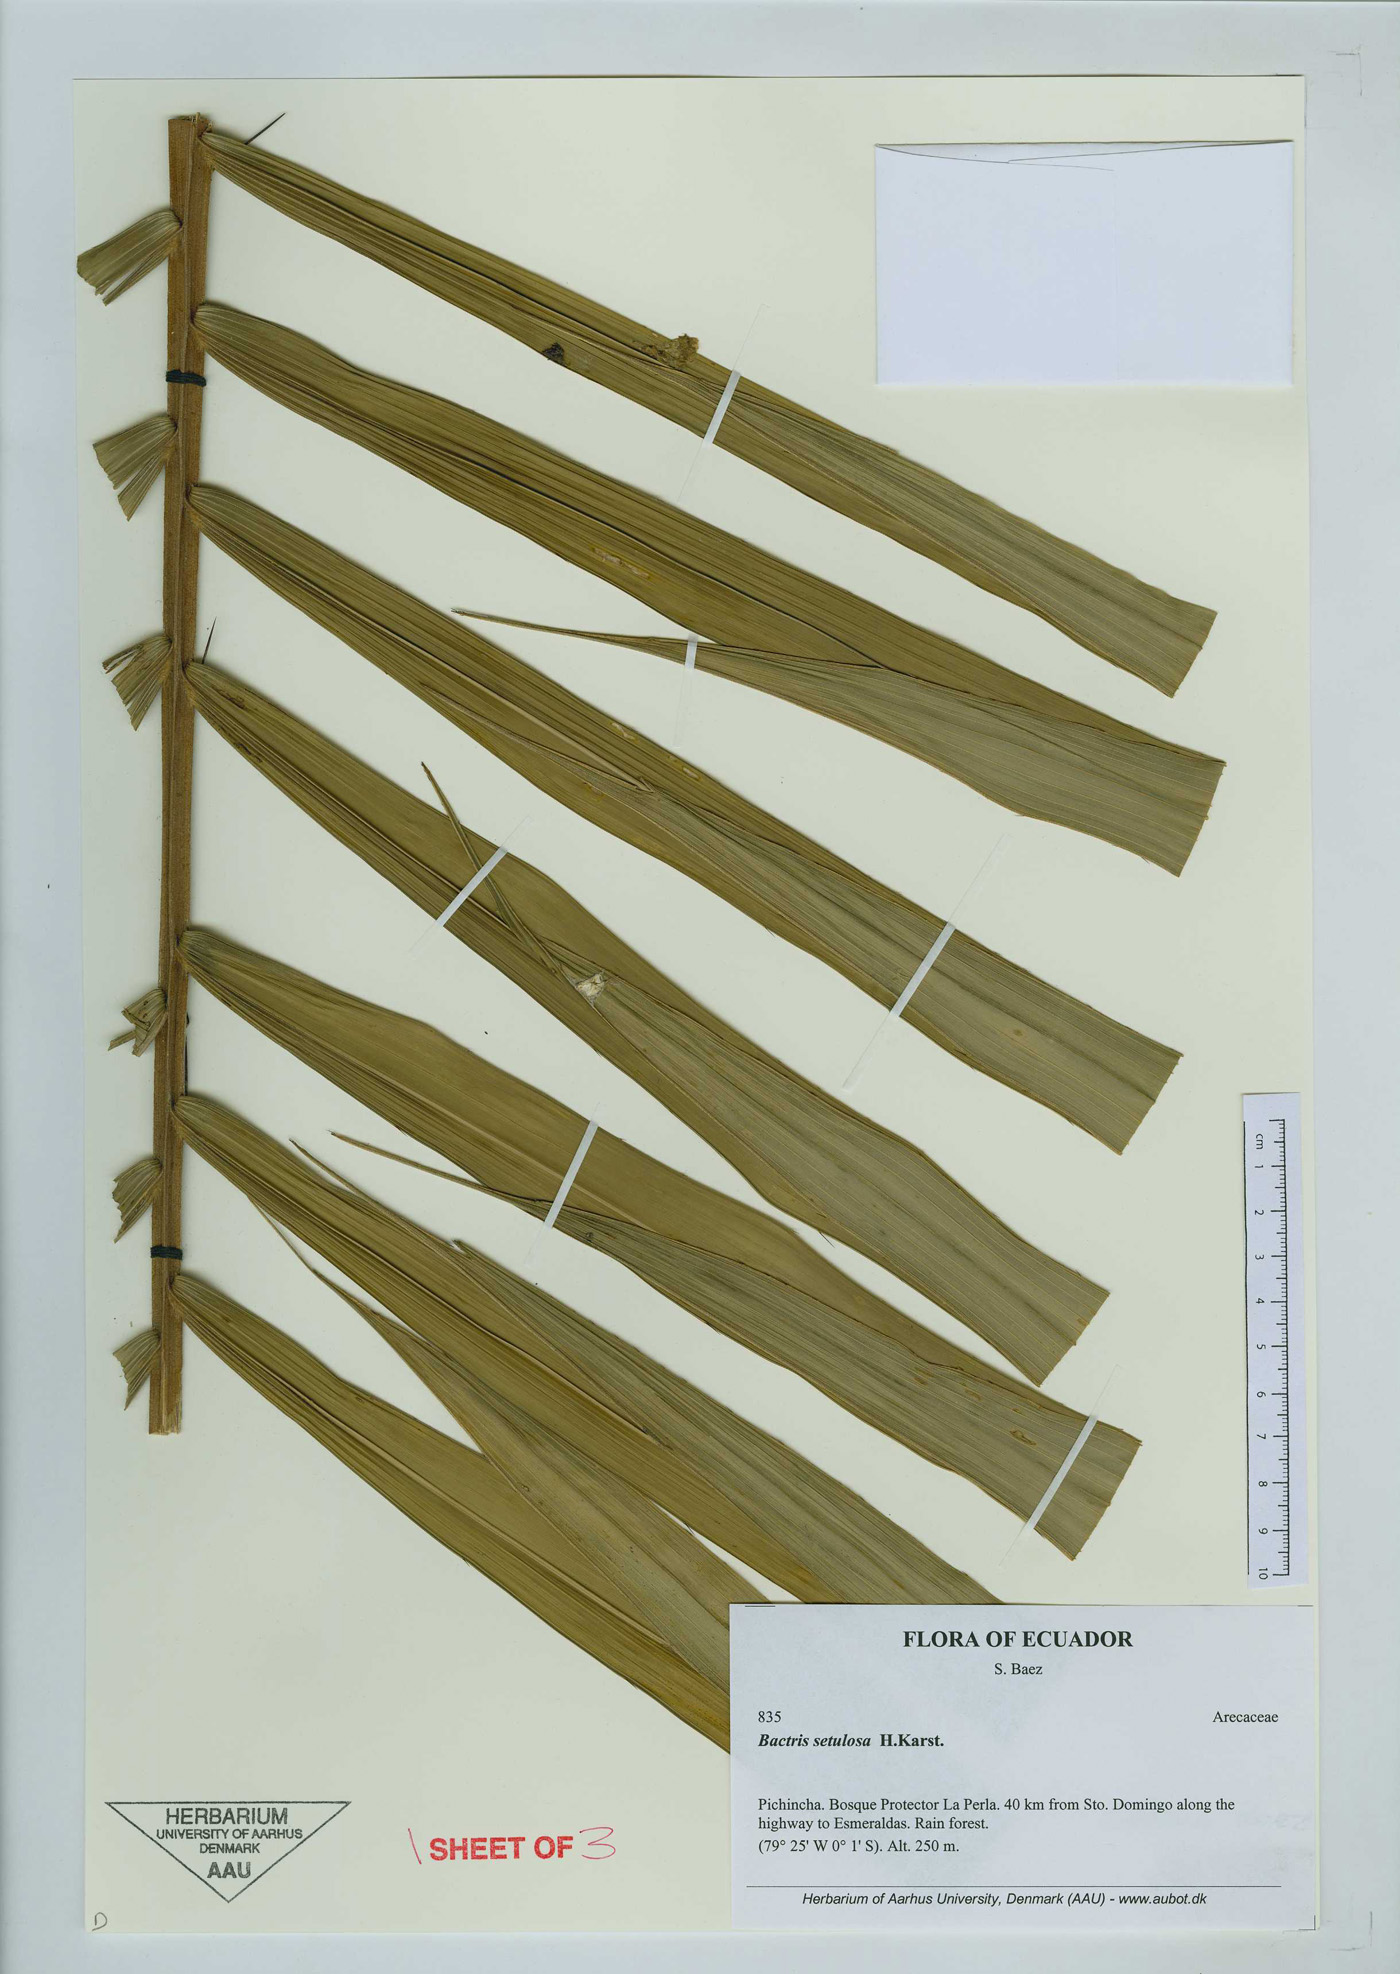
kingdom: Plantae
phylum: Tracheophyta
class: Liliopsida
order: Arecales
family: Arecaceae
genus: Bactris
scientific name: Bactris setulosa
